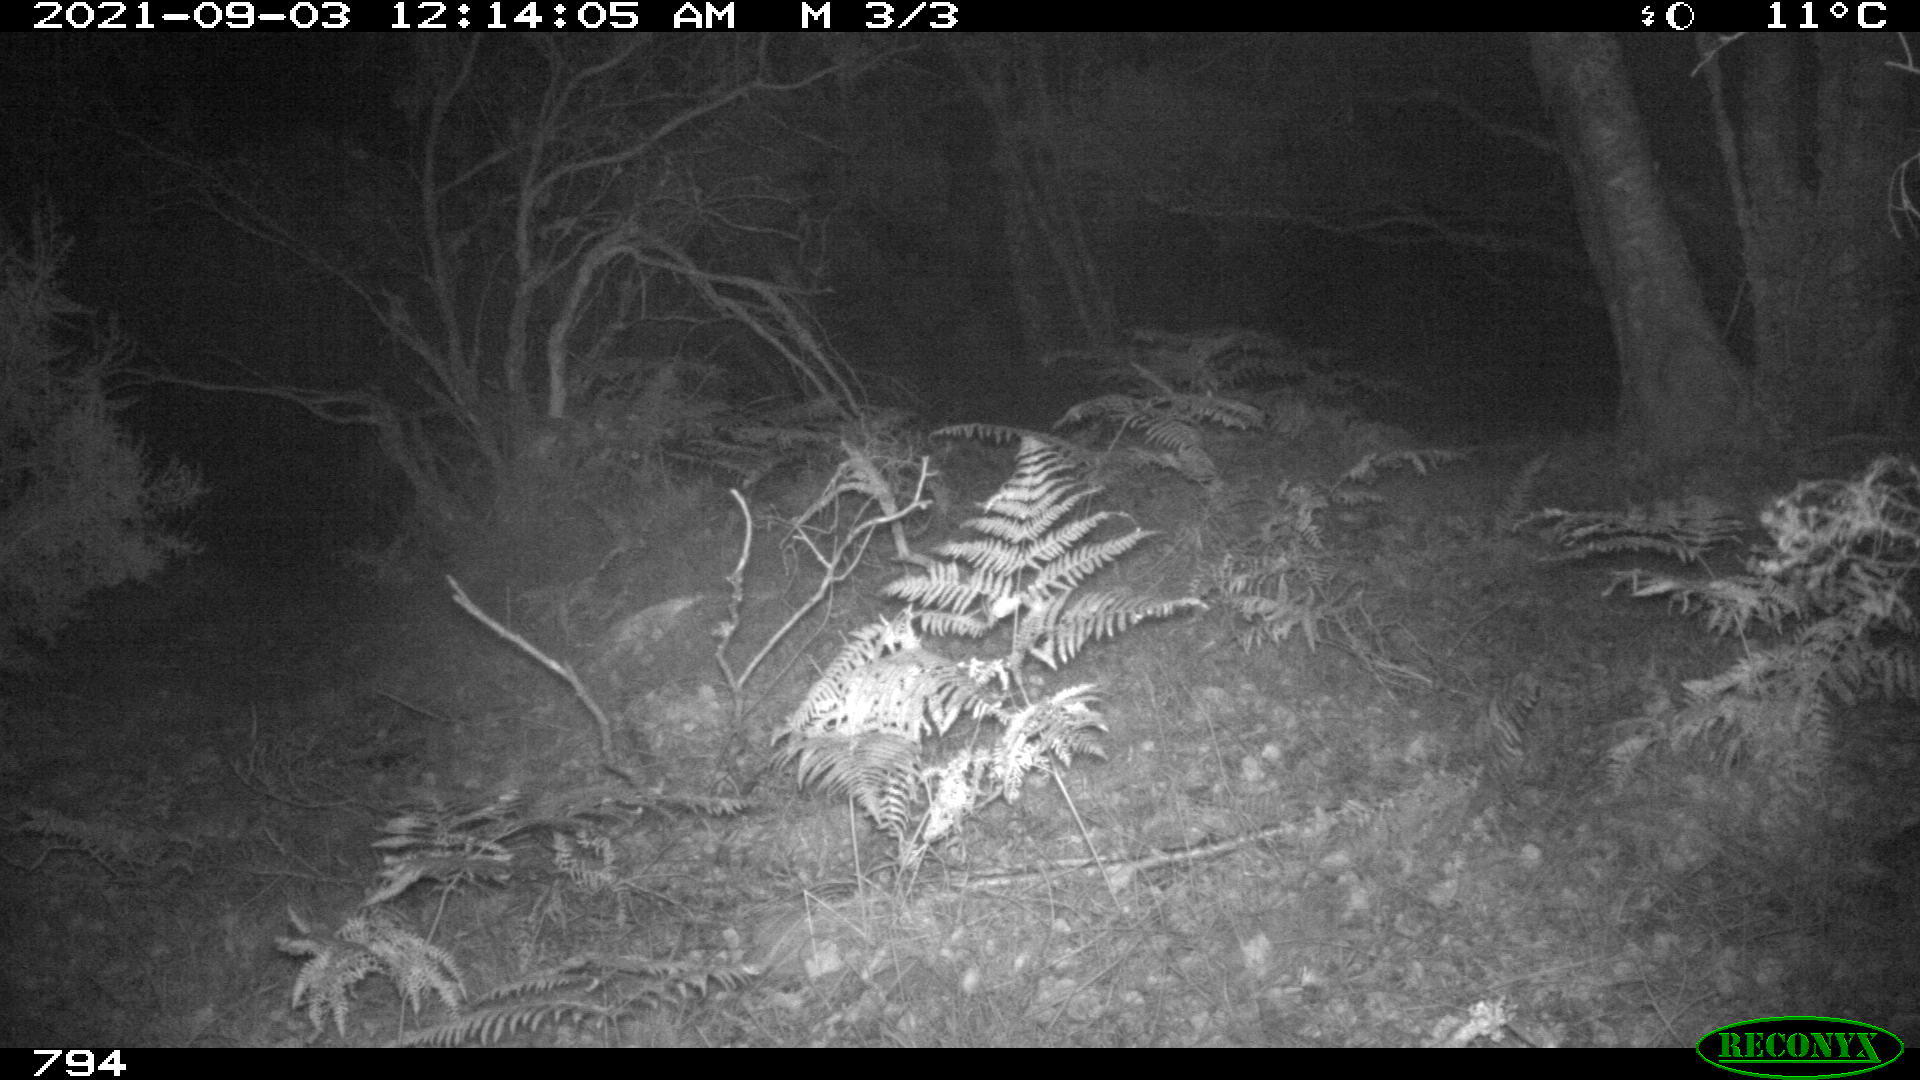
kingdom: Animalia
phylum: Chordata
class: Mammalia
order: Artiodactyla
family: Cervidae
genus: Capreolus
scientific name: Capreolus capreolus
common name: Western roe deer
